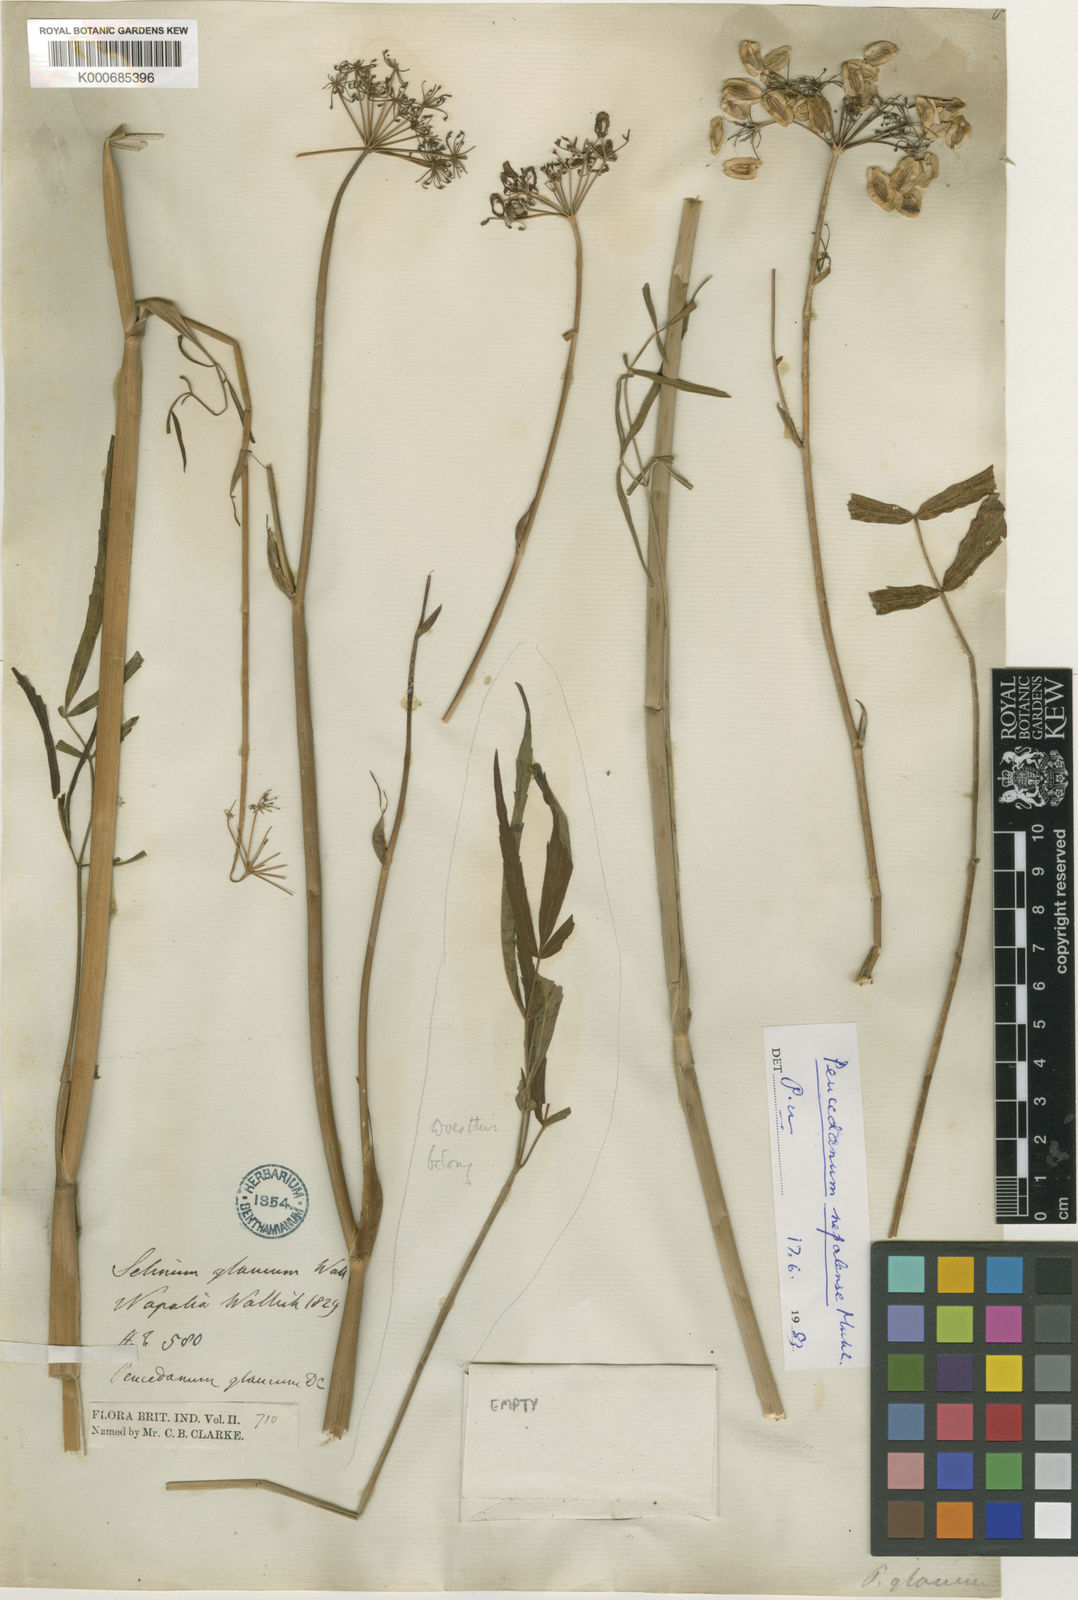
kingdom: Plantae
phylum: Tracheophyta
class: Magnoliopsida
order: Apiales
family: Apiaceae
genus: Peucedanum
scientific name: Peucedanum nepalense
